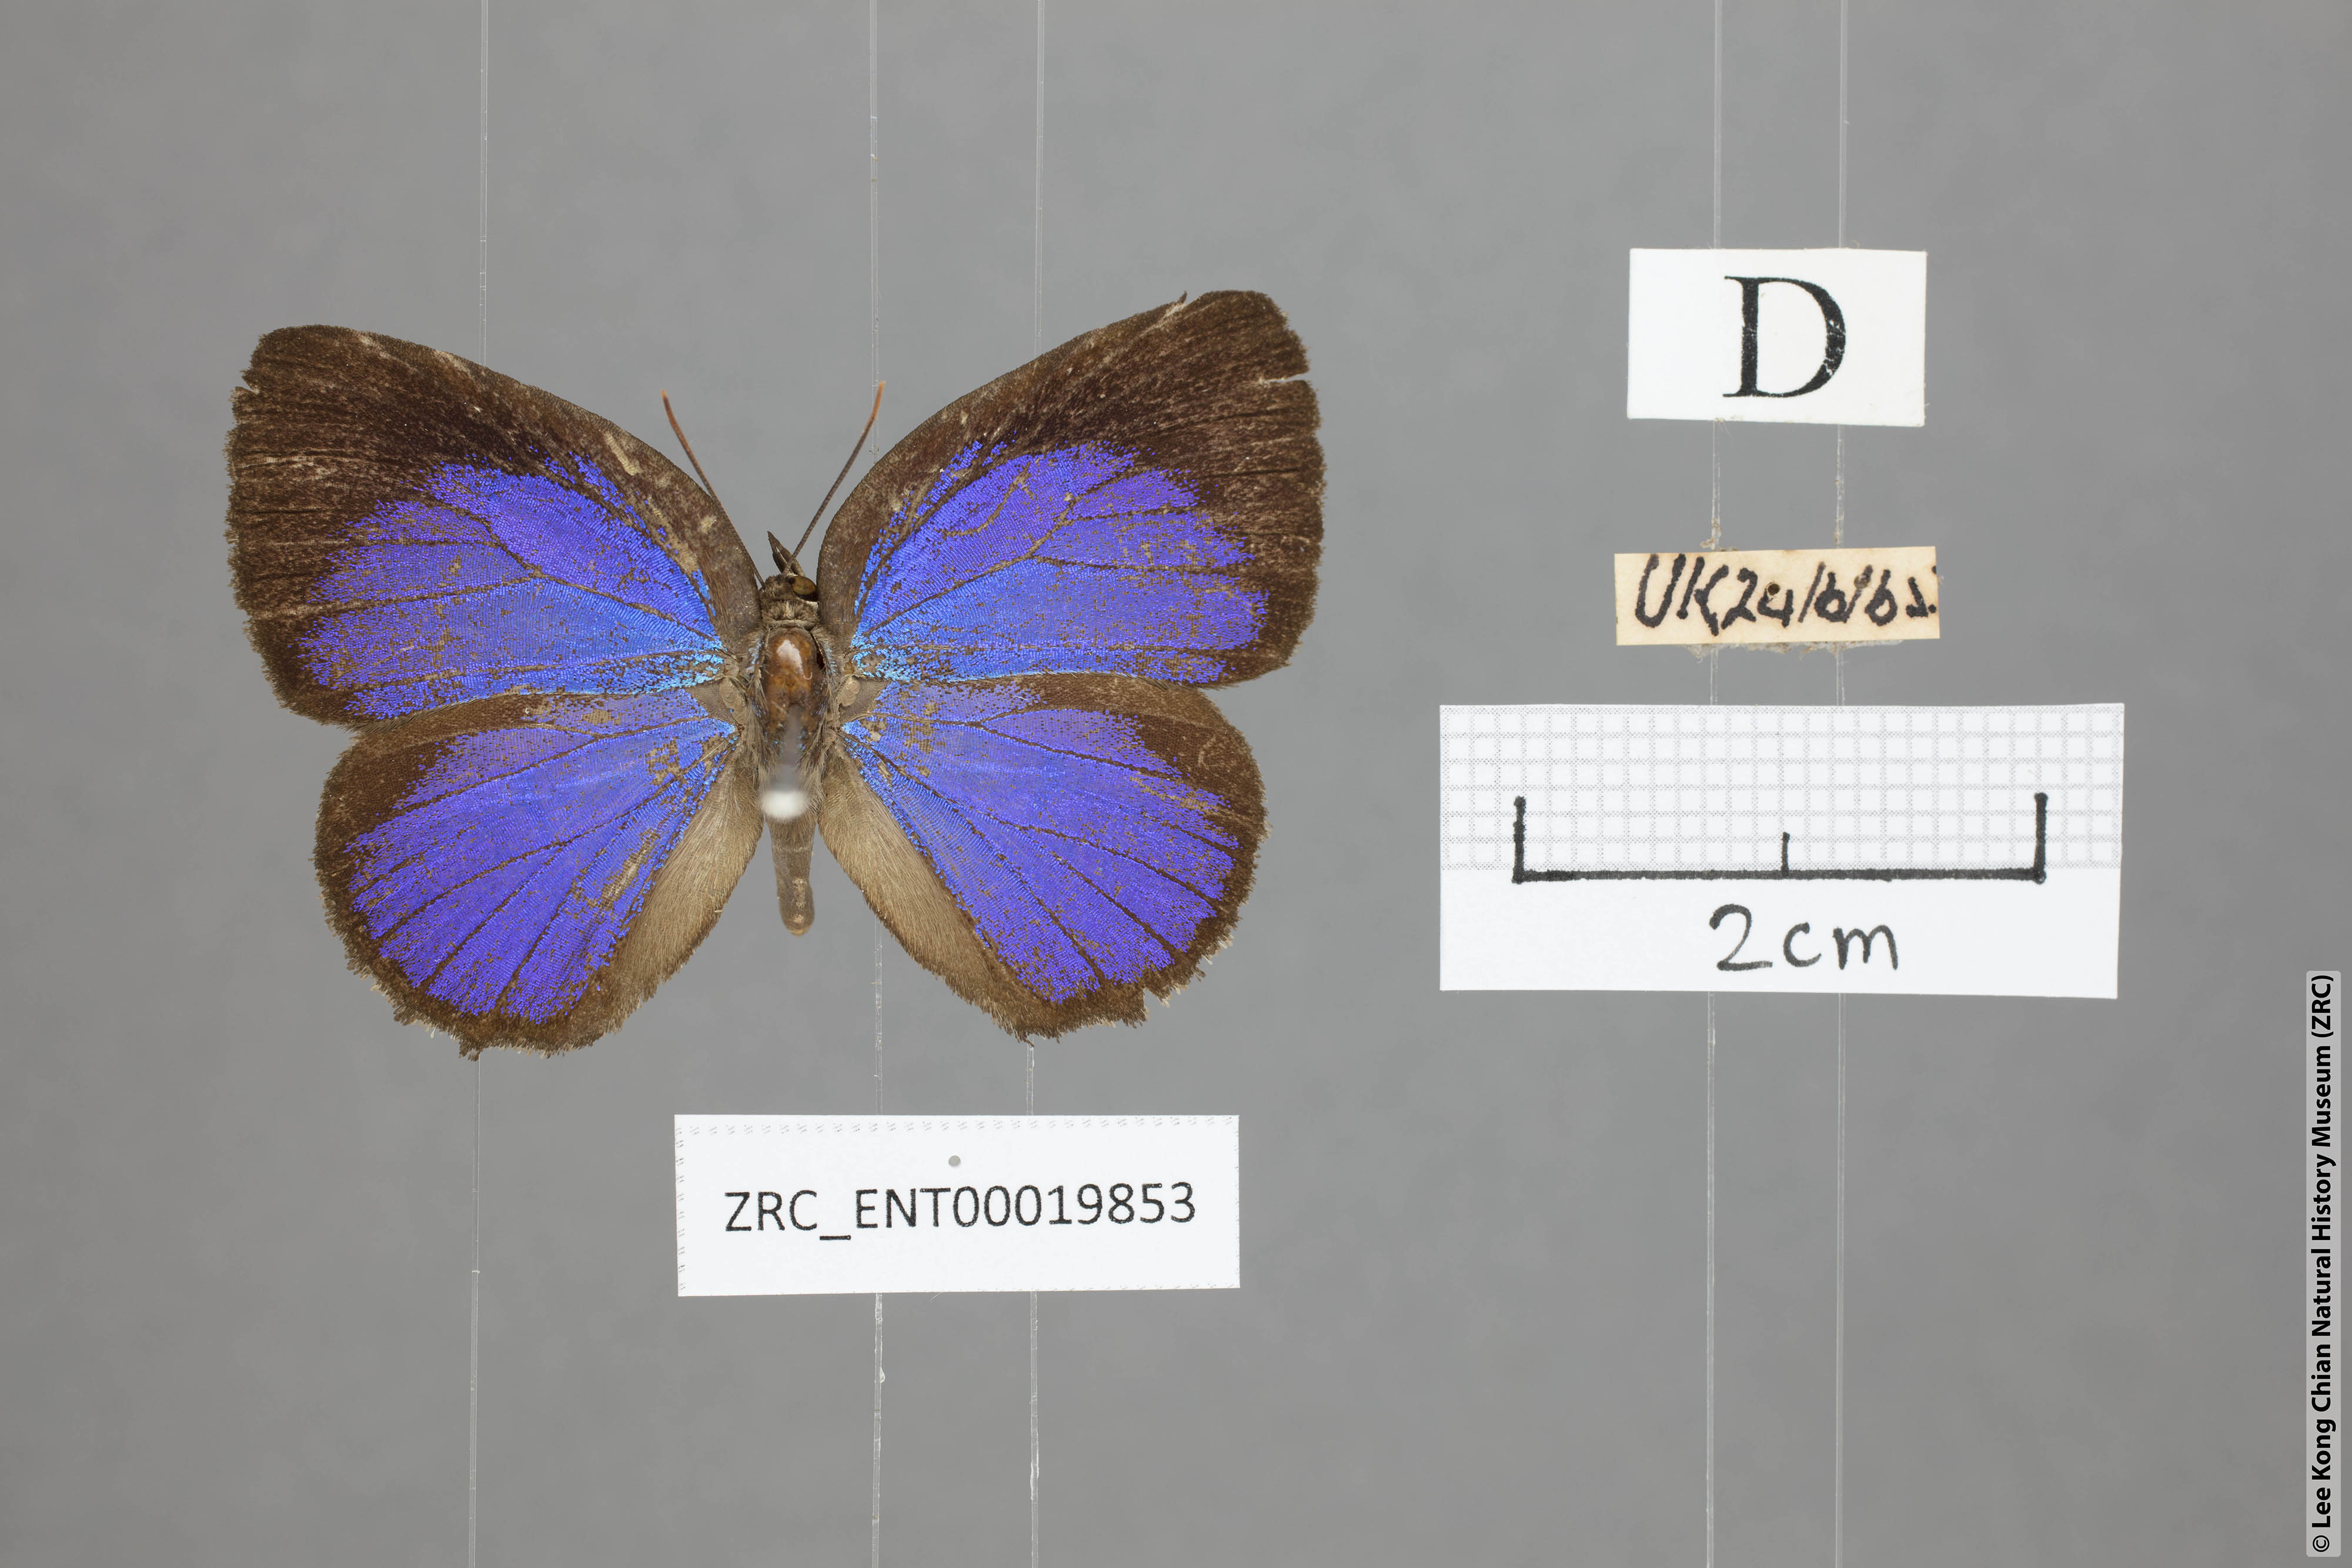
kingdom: Animalia
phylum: Arthropoda
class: Insecta
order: Lepidoptera
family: Lycaenidae
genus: Arhopala
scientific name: Arhopala similis
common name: Druce's oakblue
